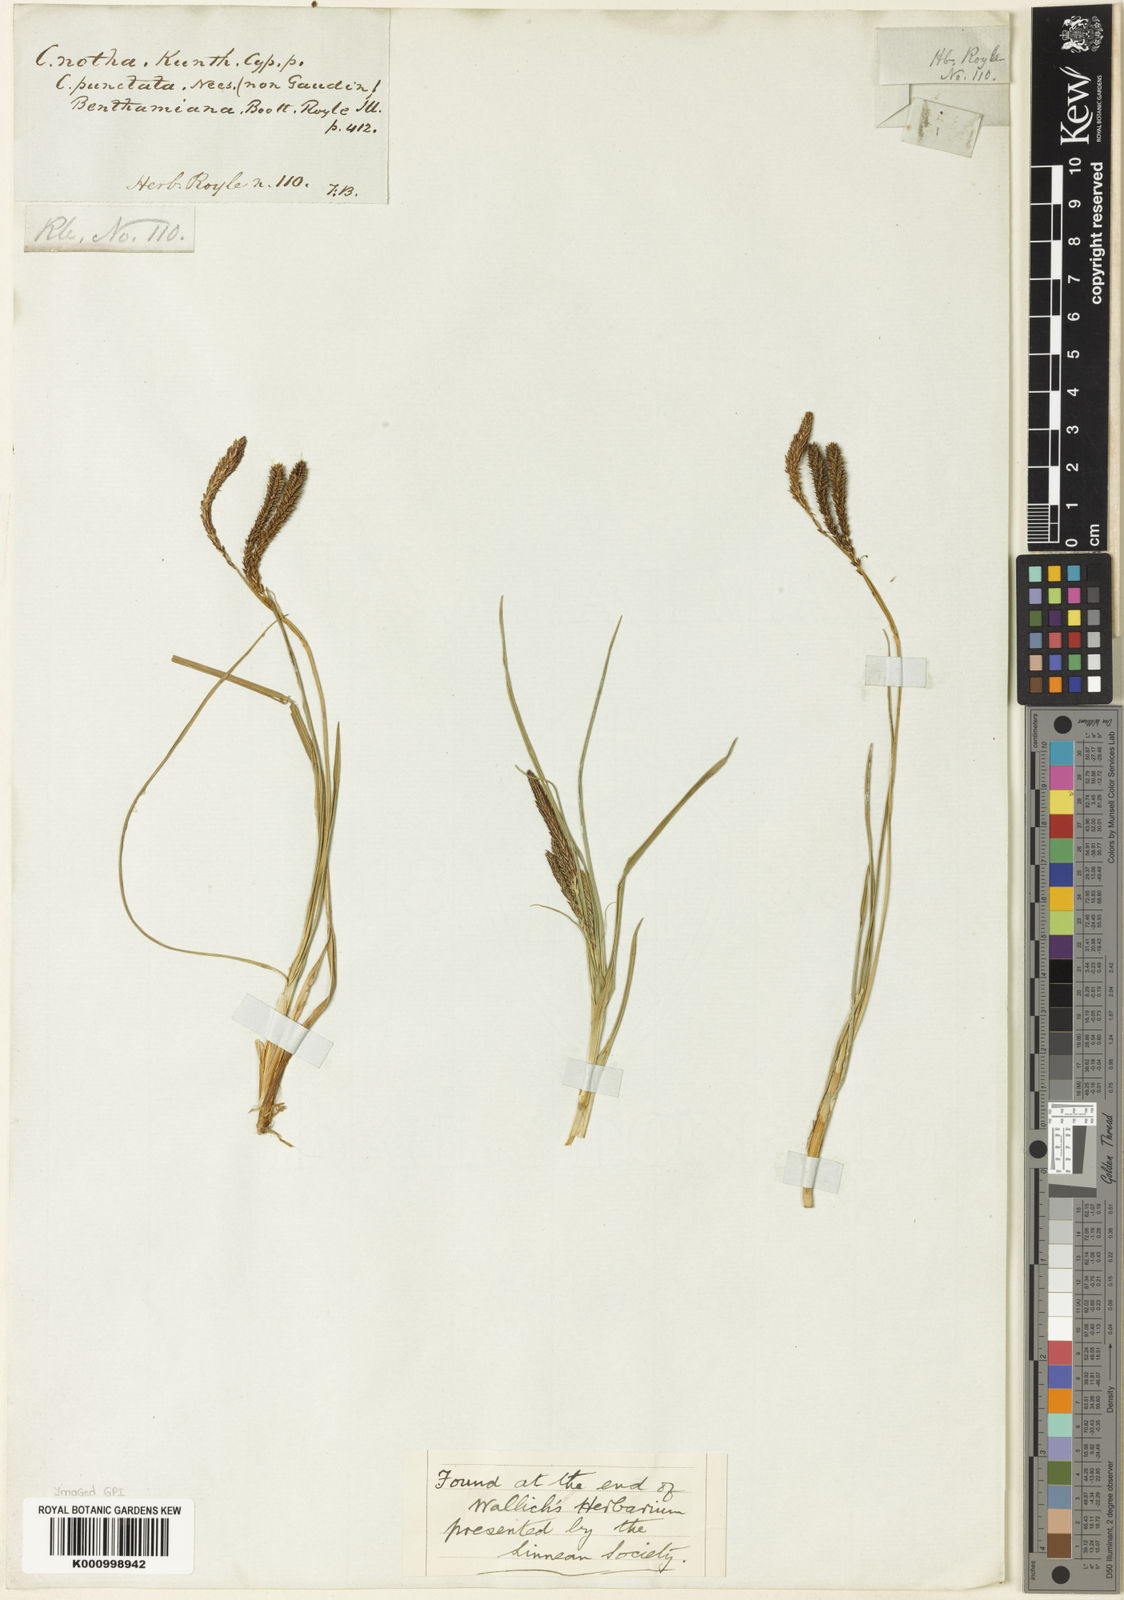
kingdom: Plantae
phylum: Tracheophyta
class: Liliopsida
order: Poales
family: Cyperaceae
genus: Carex
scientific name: Carex notha
